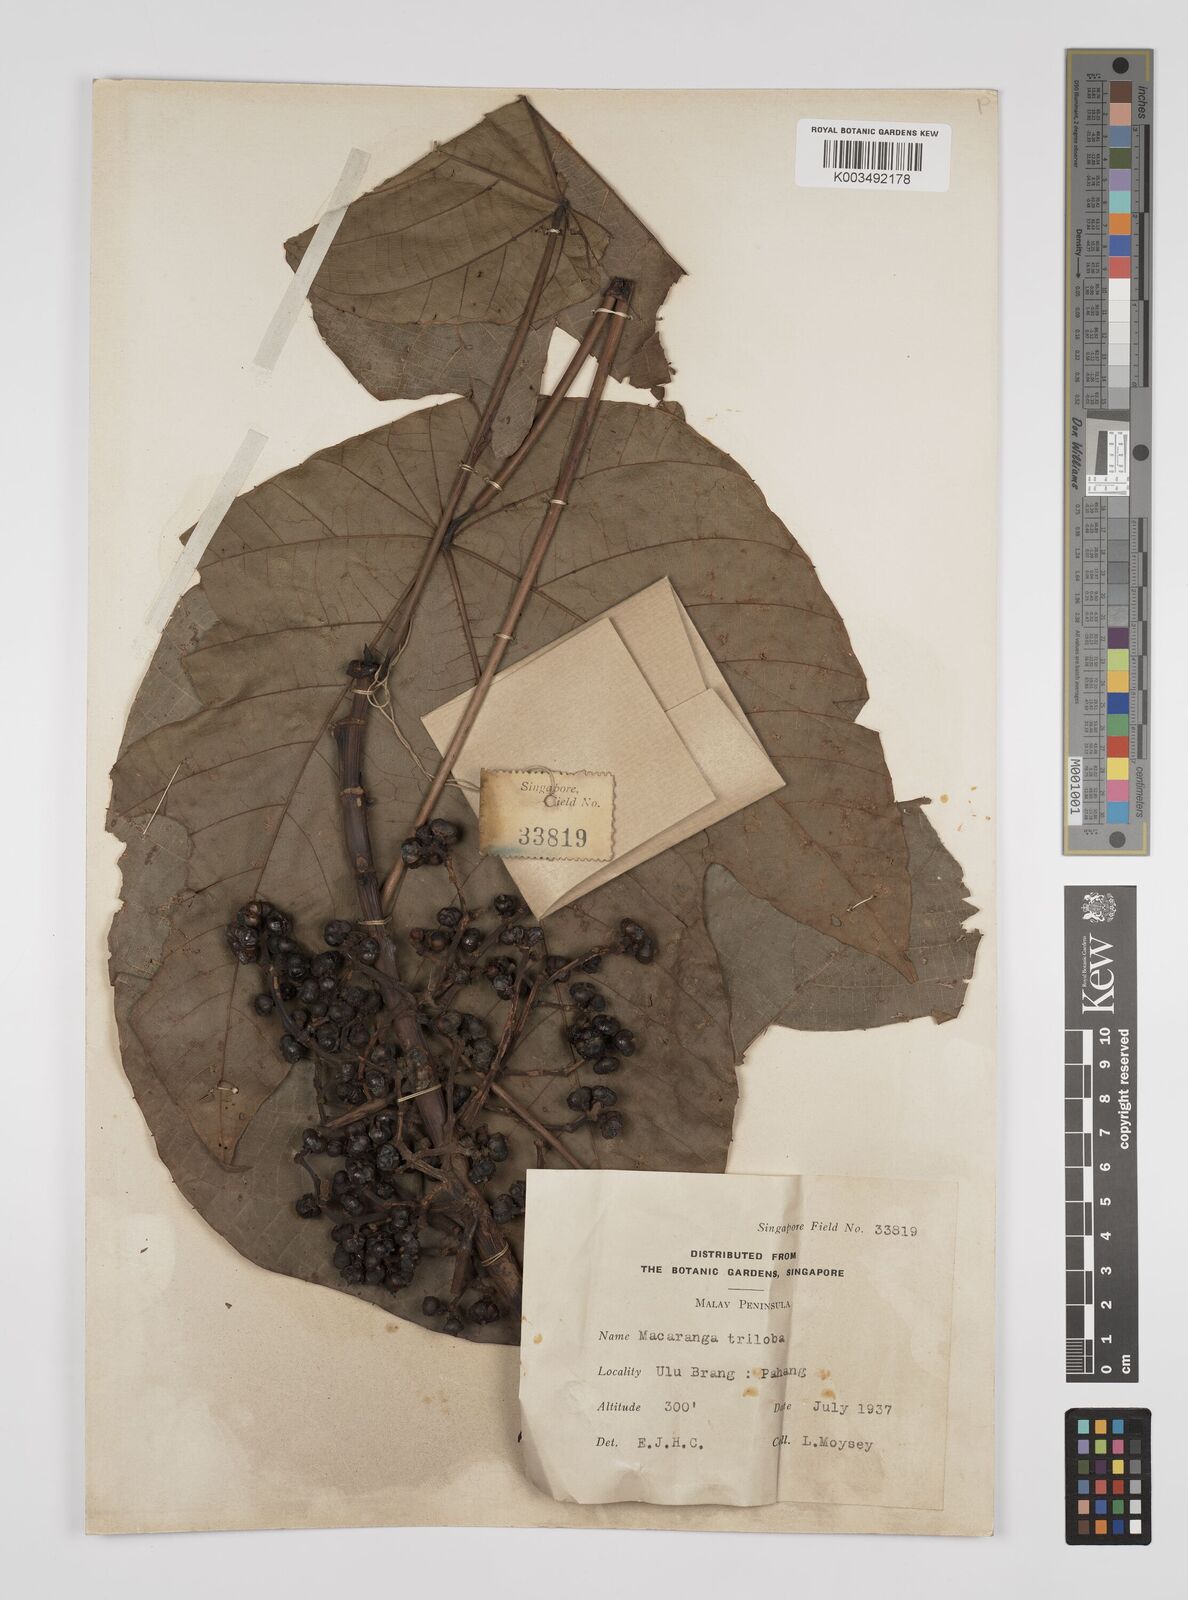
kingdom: Plantae
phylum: Tracheophyta
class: Magnoliopsida
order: Malpighiales
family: Euphorbiaceae
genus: Macaranga
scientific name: Macaranga triloba
